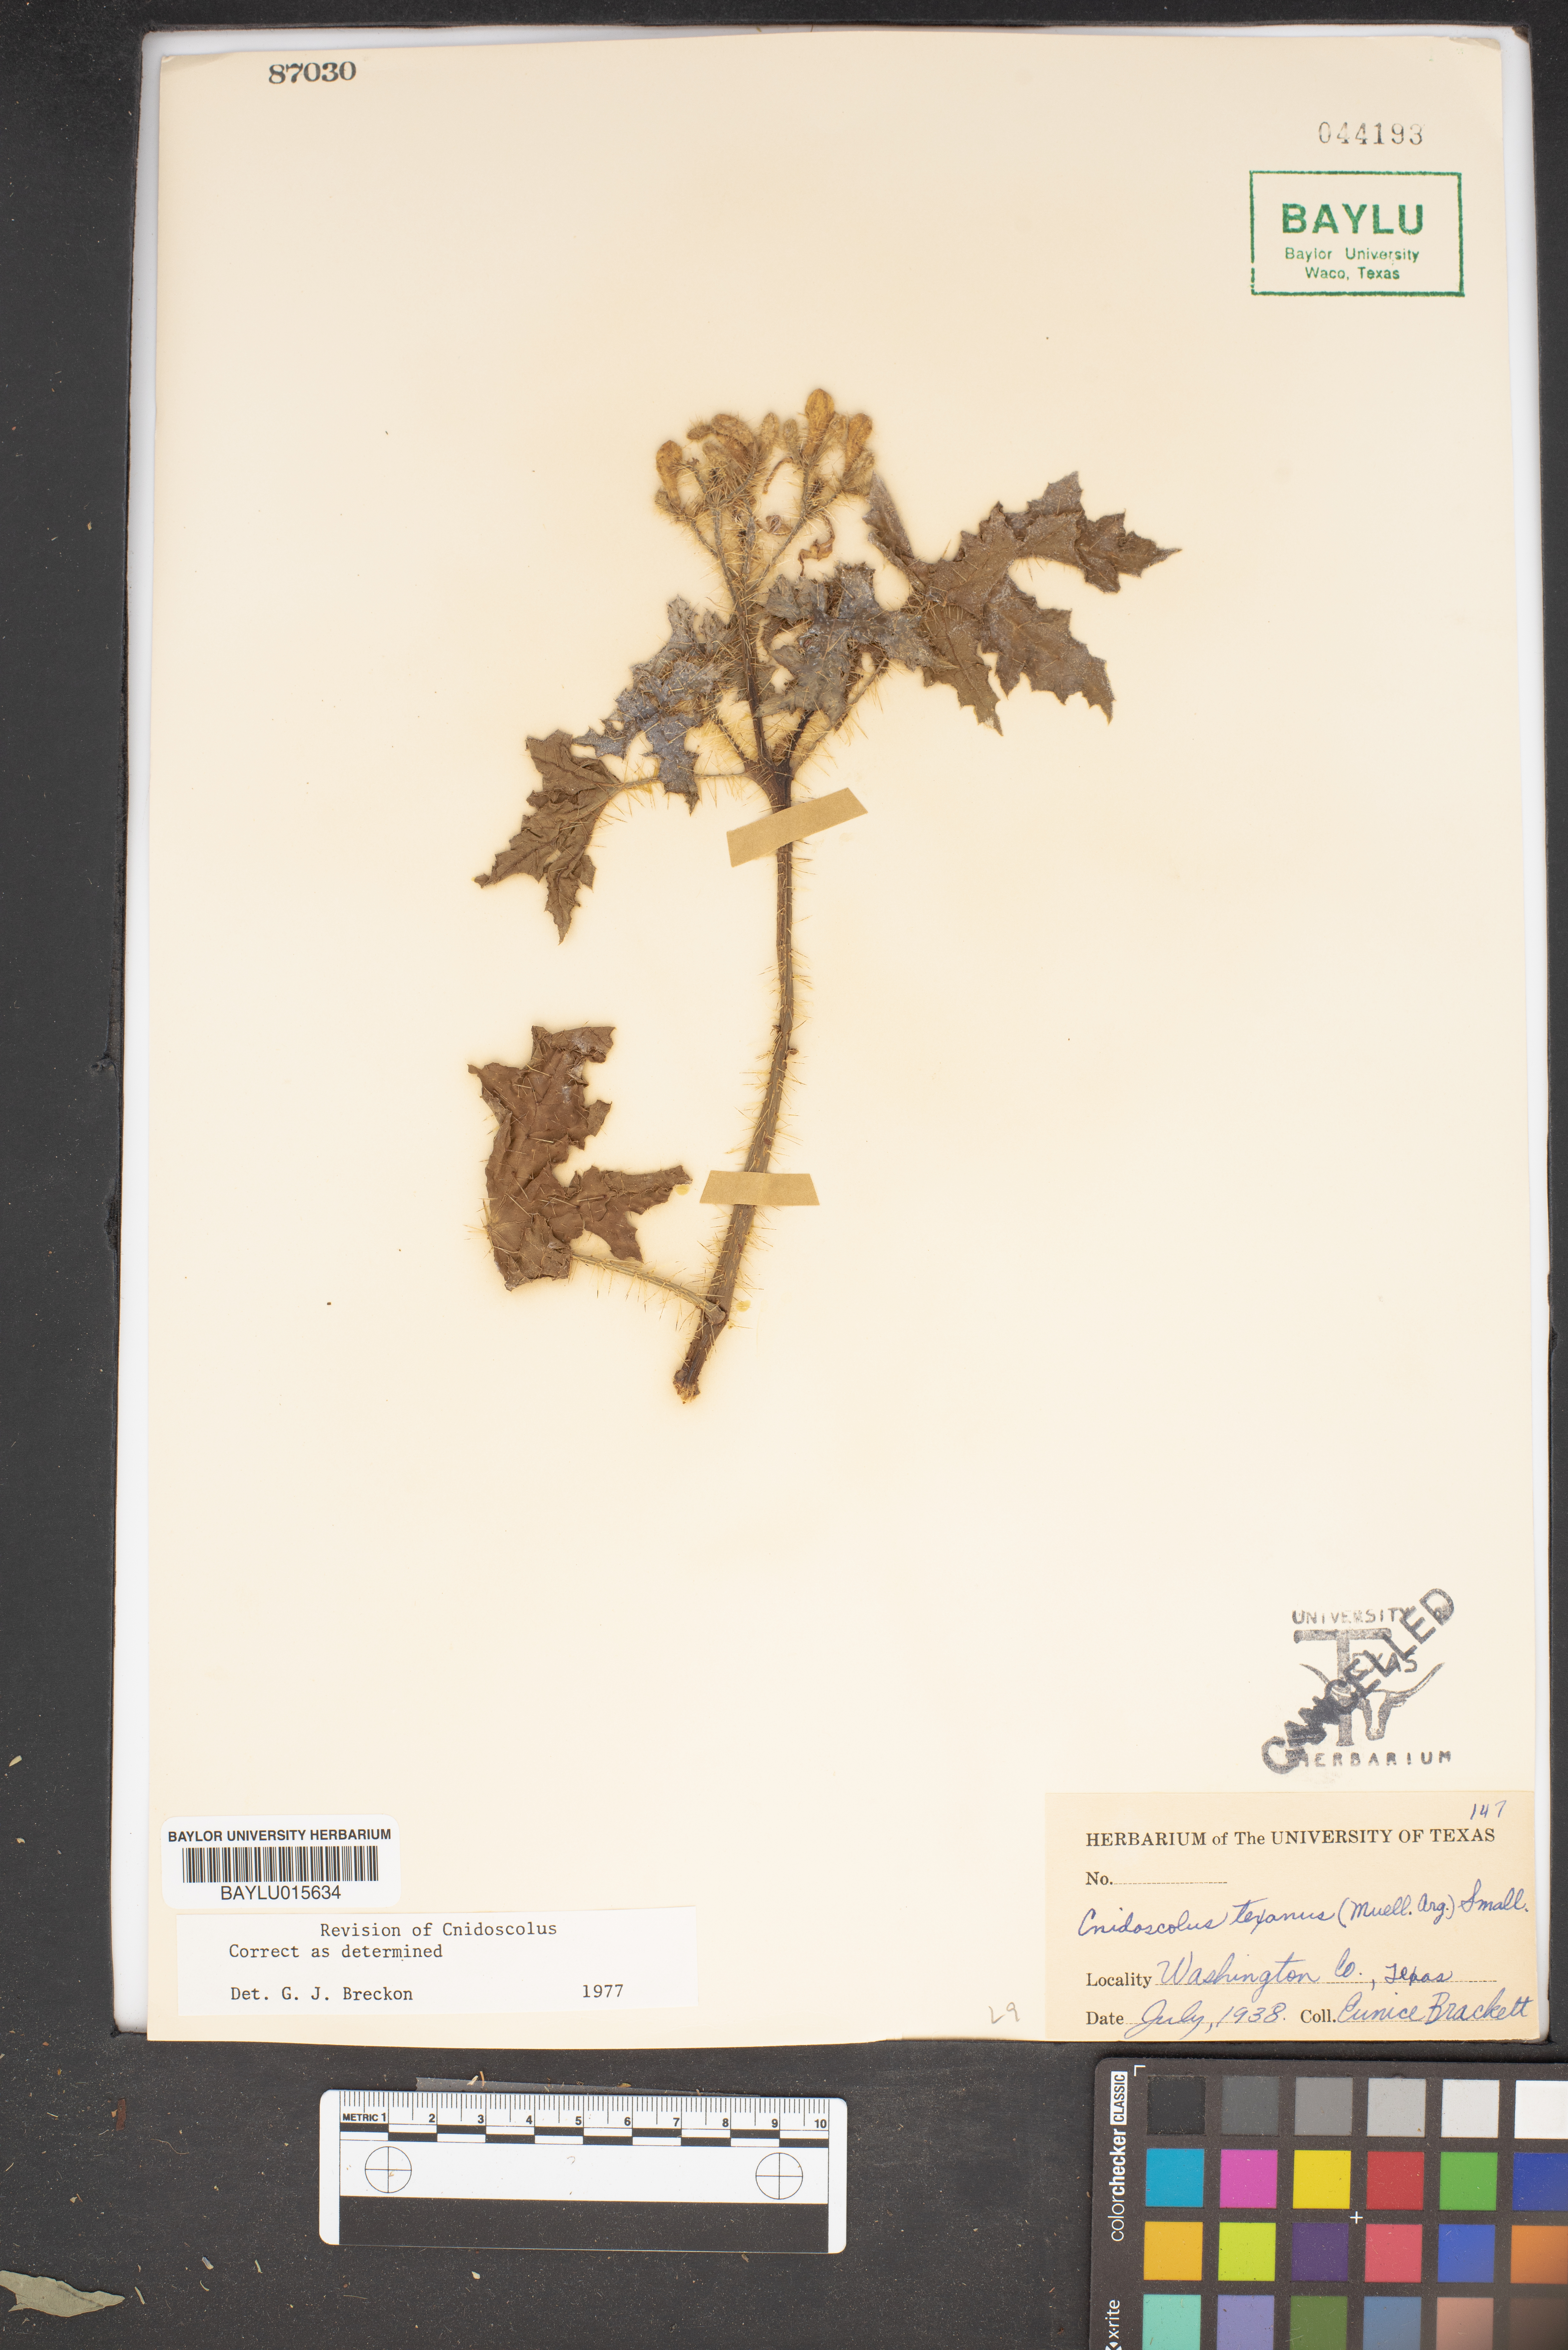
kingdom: Plantae
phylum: Tracheophyta
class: Magnoliopsida
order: Malpighiales
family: Euphorbiaceae
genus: Cnidoscolus
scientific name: Cnidoscolus texanus
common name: Texas bull-nettle
